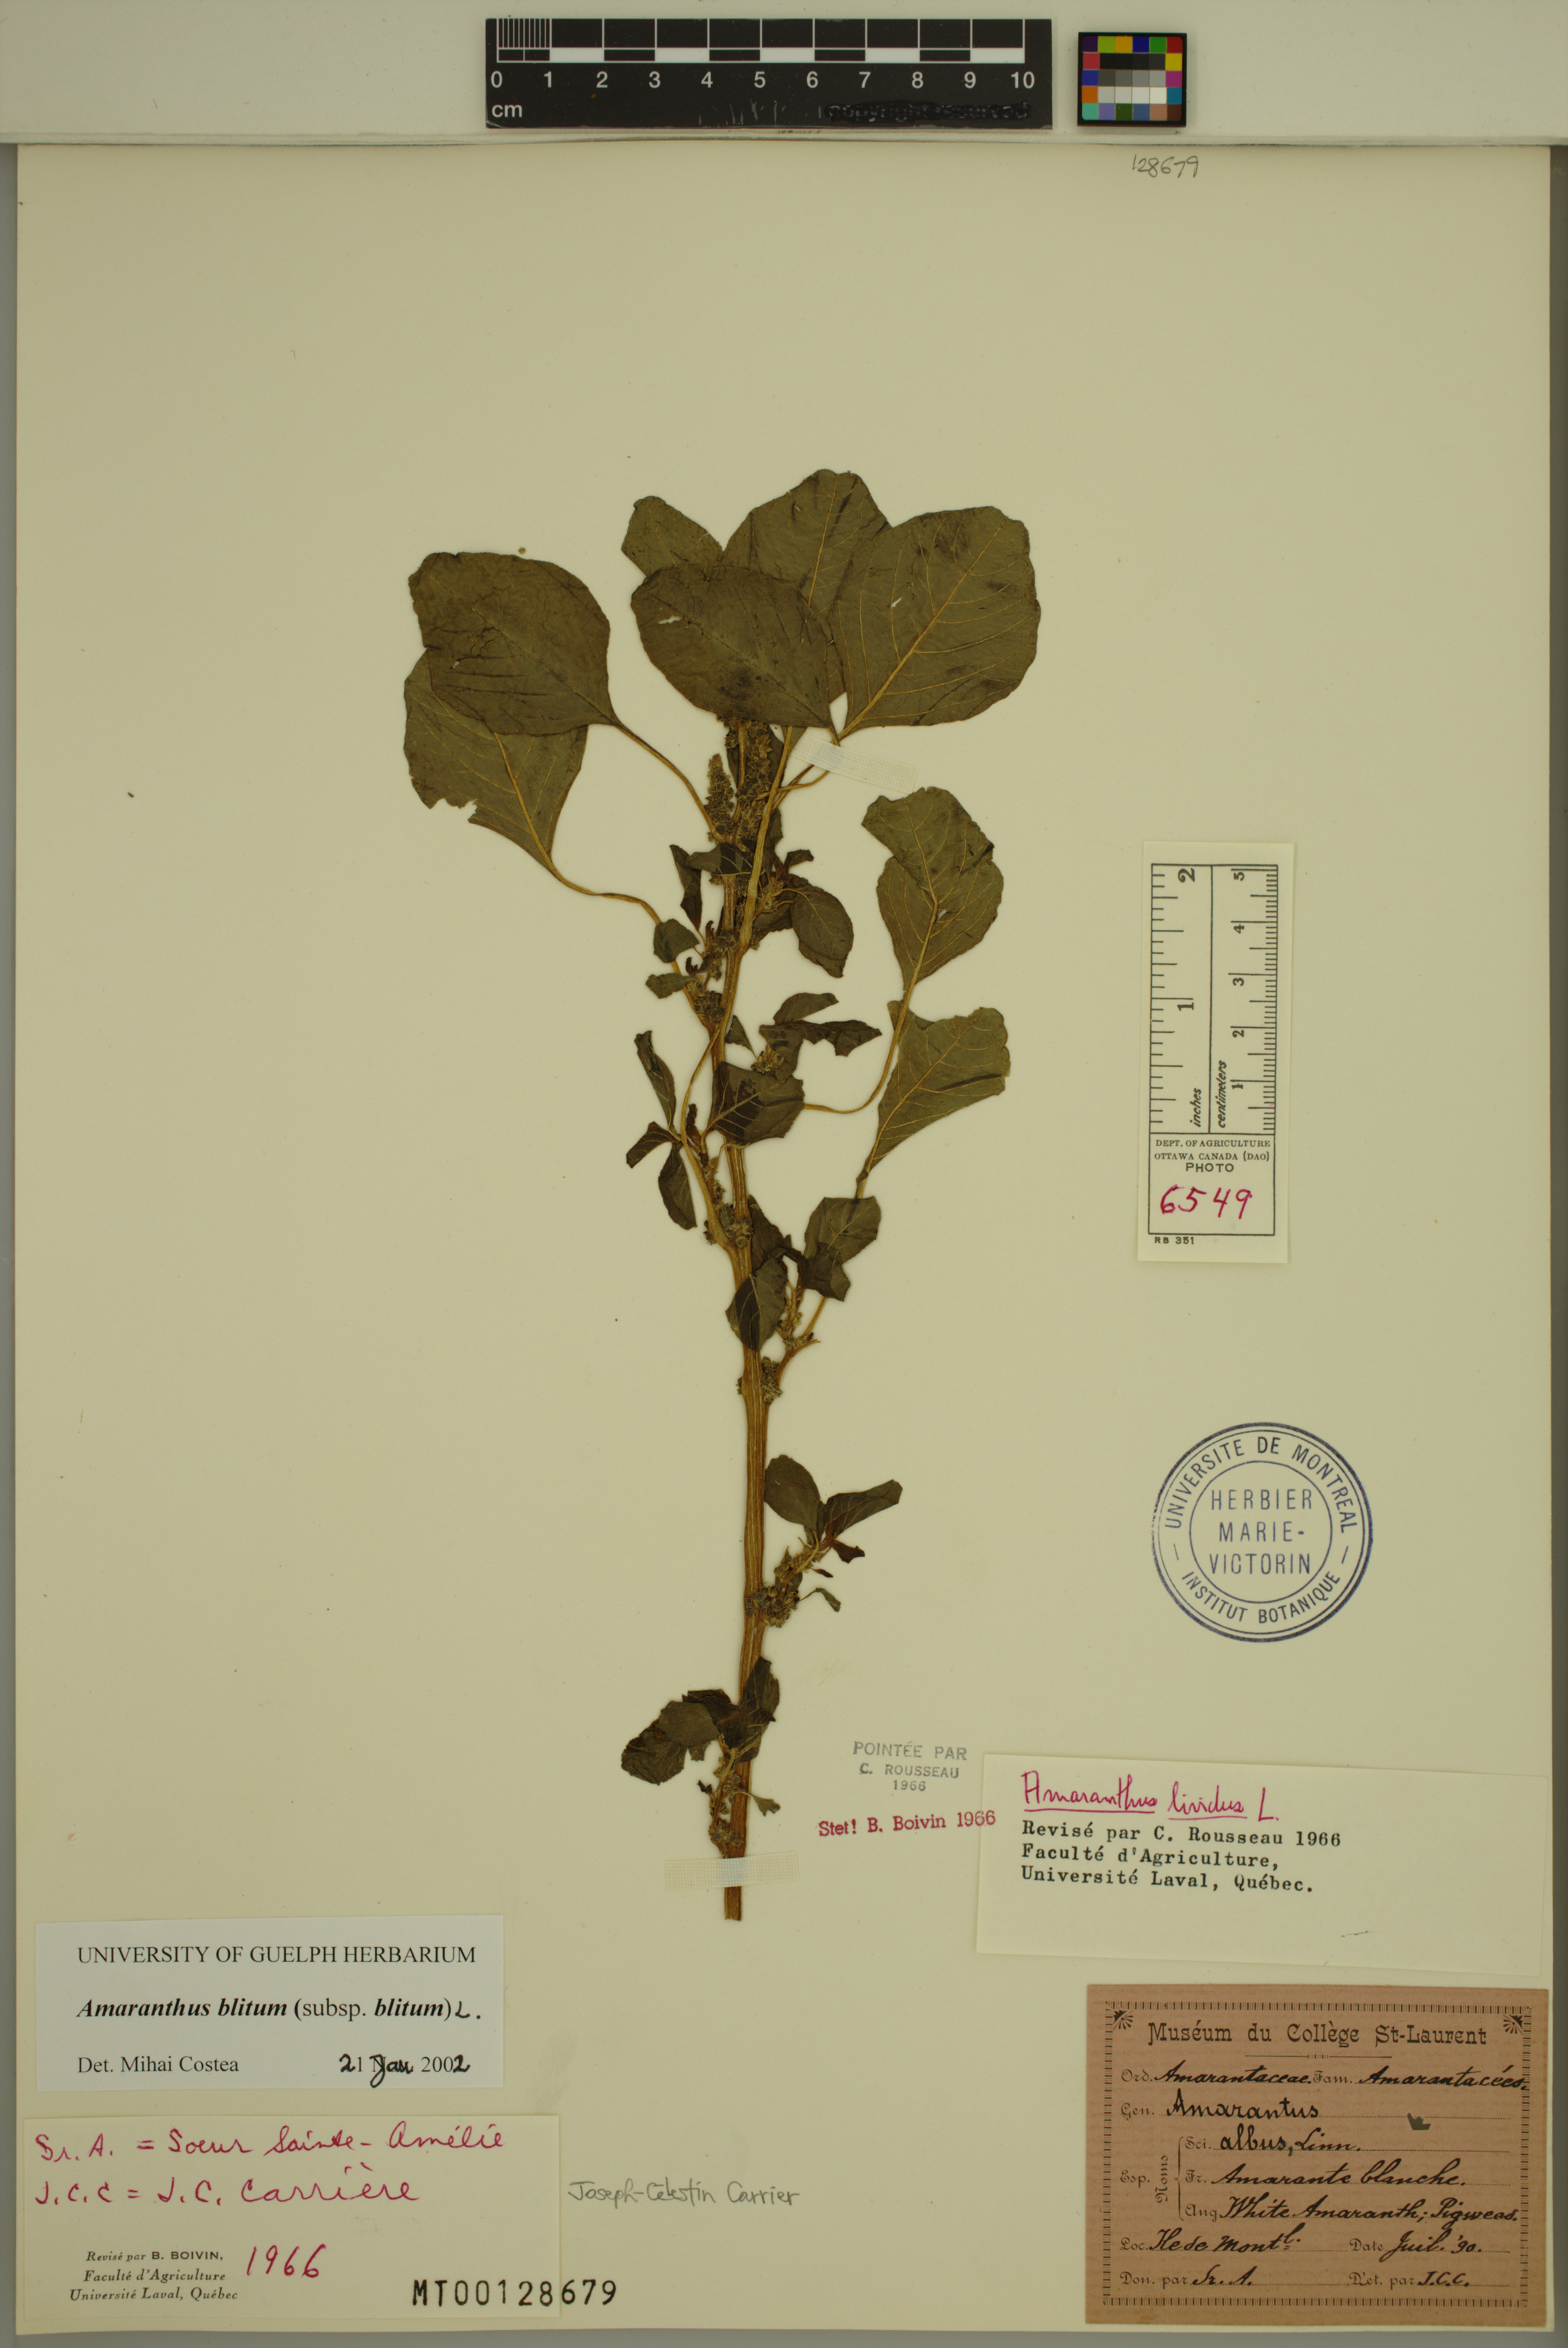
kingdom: Plantae
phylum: Tracheophyta
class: Magnoliopsida
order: Caryophyllales
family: Amaranthaceae
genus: Amaranthus
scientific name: Amaranthus blitum
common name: Purple amaranth
